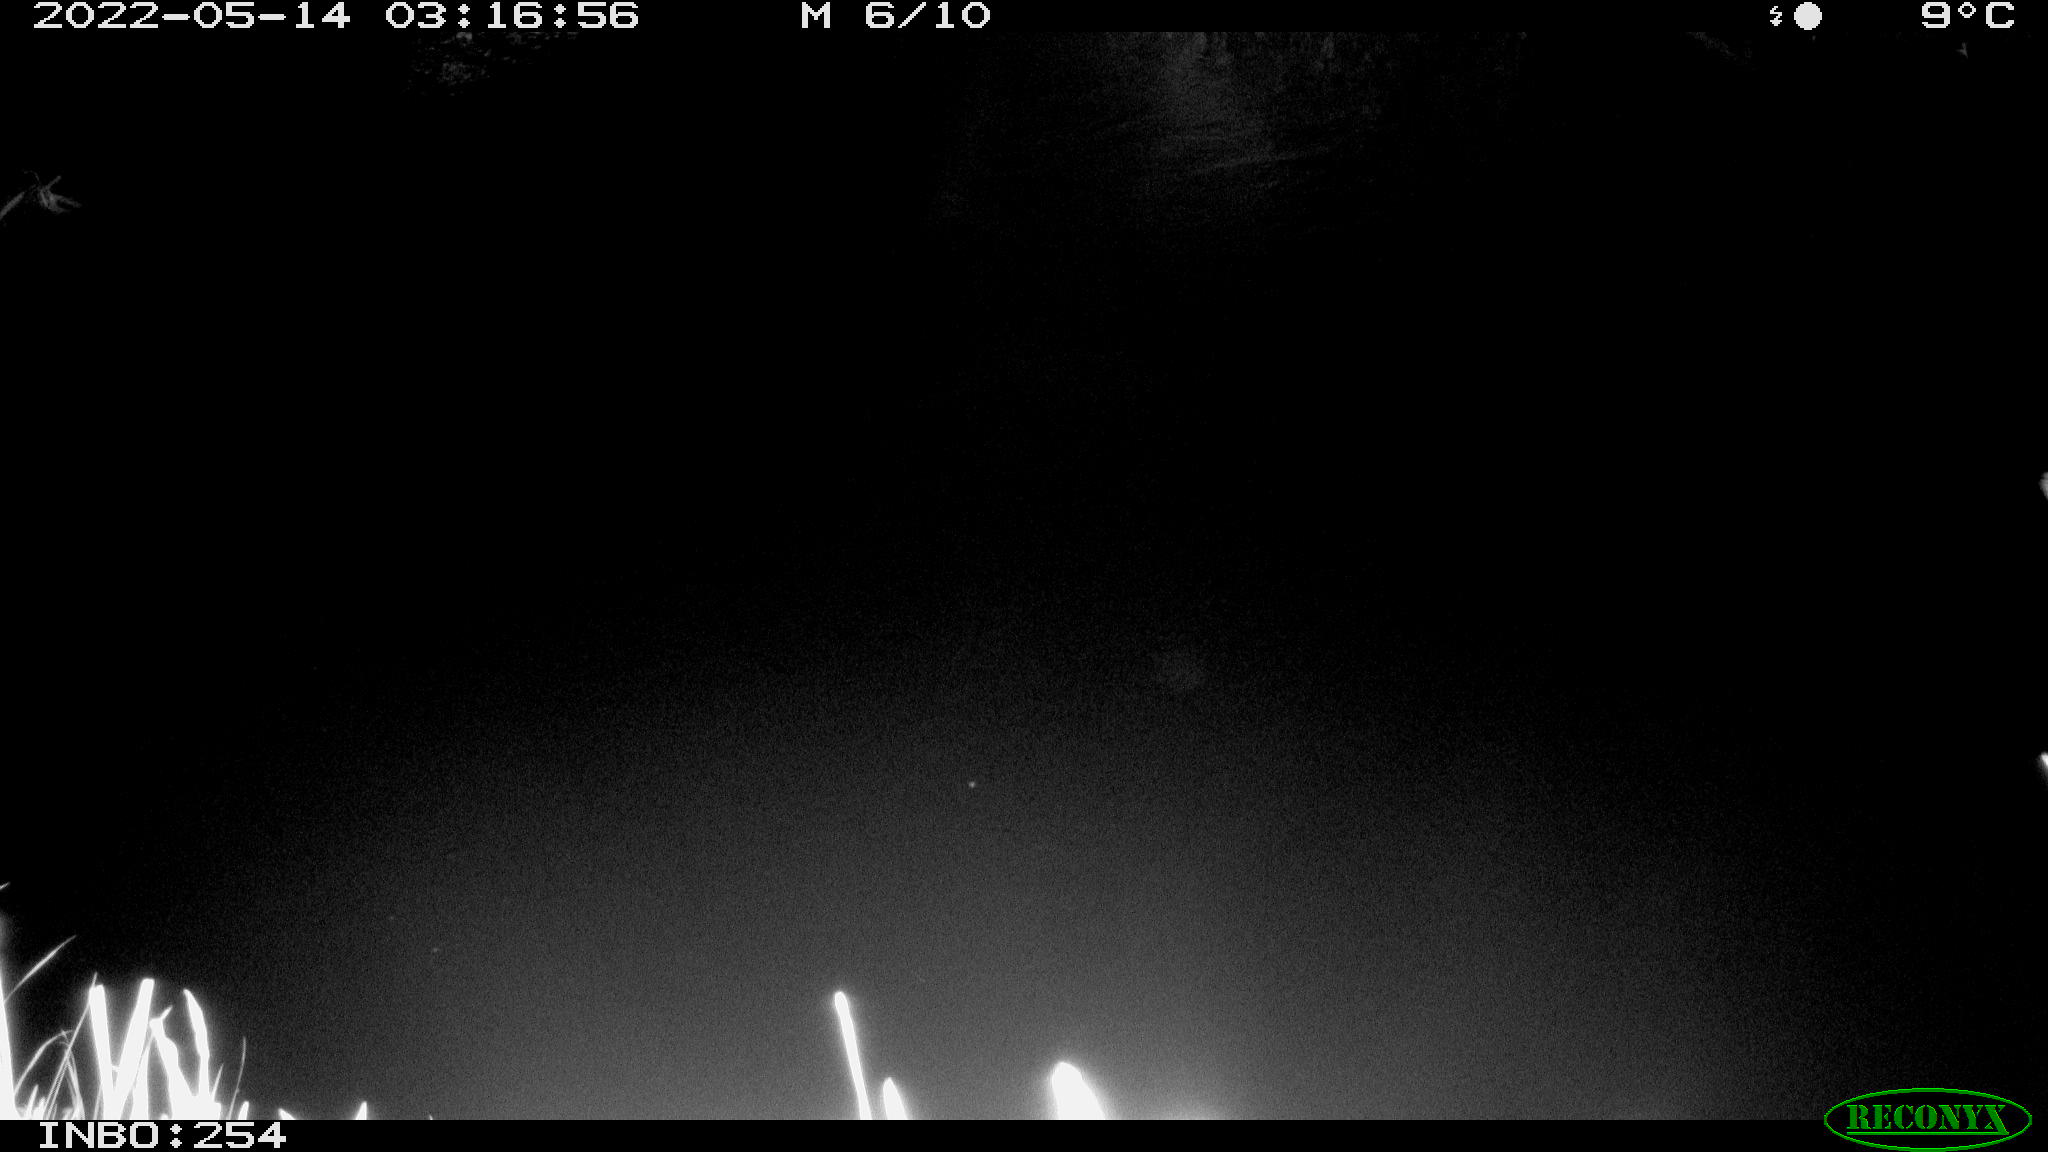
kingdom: Animalia
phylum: Chordata
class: Aves
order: Anseriformes
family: Anatidae
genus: Anas
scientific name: Anas platyrhynchos
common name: Mallard
